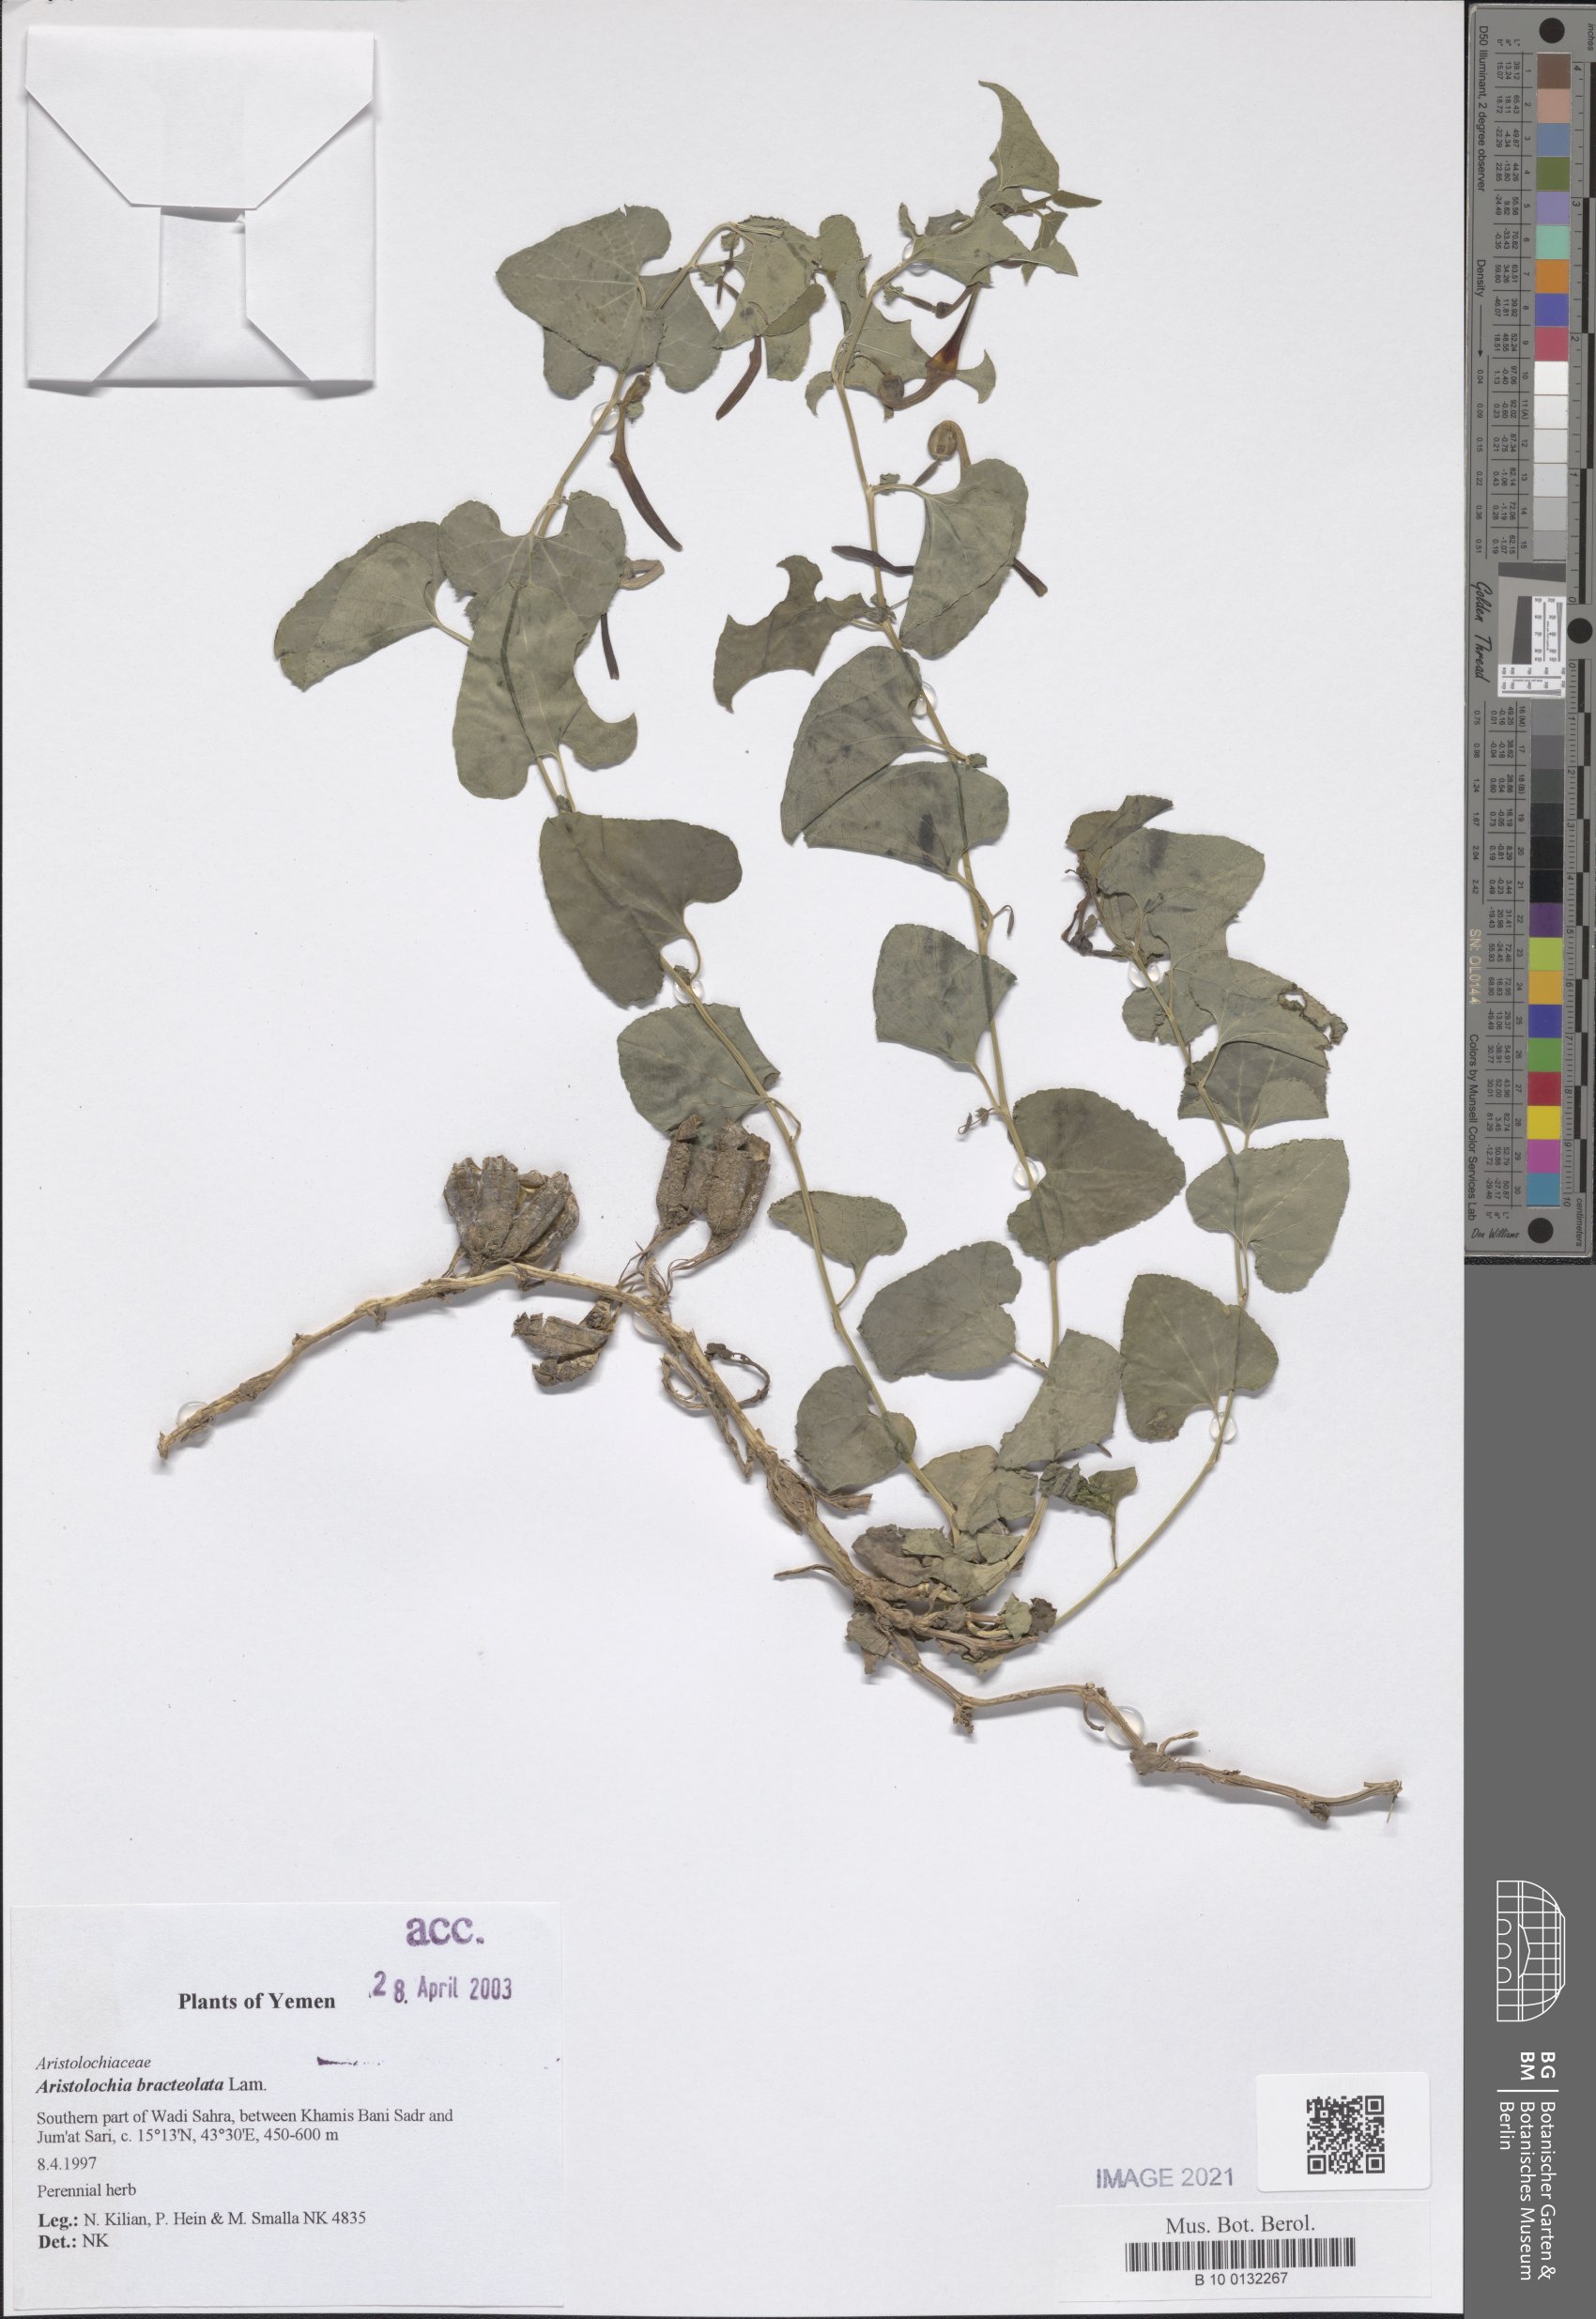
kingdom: Plantae
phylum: Tracheophyta
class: Magnoliopsida
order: Piperales
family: Aristolochiaceae
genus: Aristolochia
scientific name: Aristolochia bracteolata
